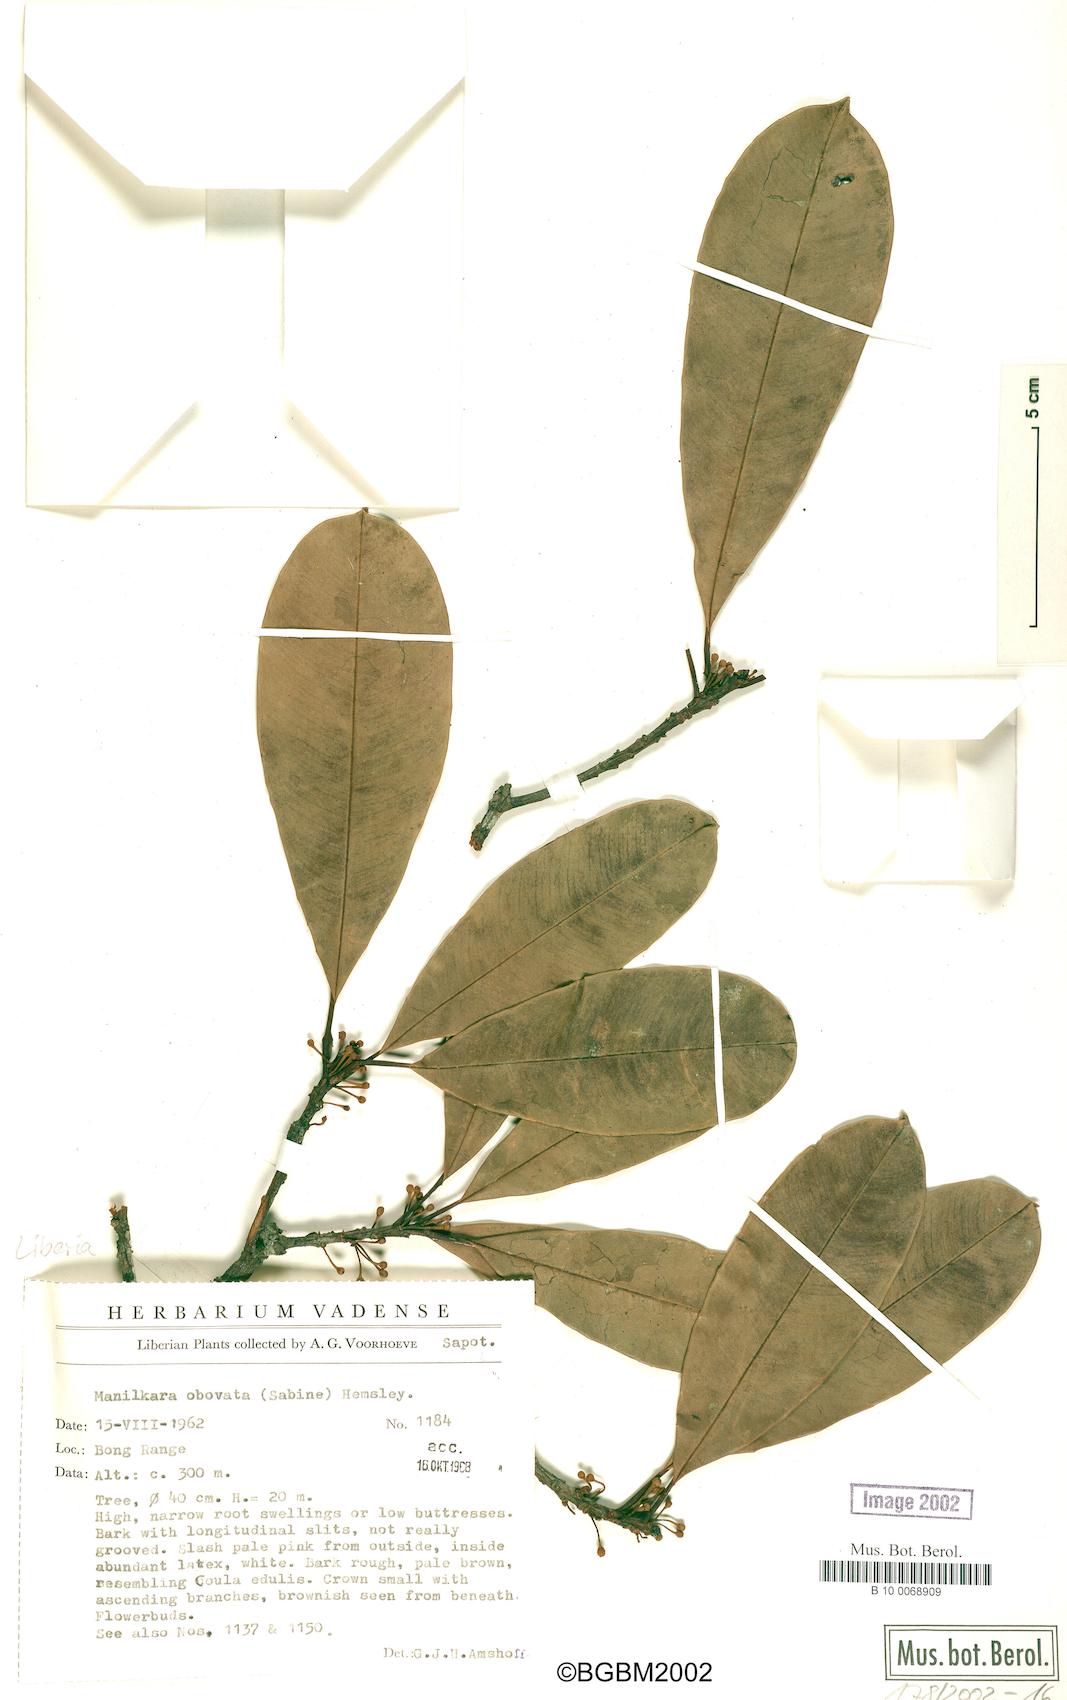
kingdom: Plantae
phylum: Tracheophyta
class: Magnoliopsida
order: Ericales
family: Sapotaceae
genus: Manilkara
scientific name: Manilkara obovata
